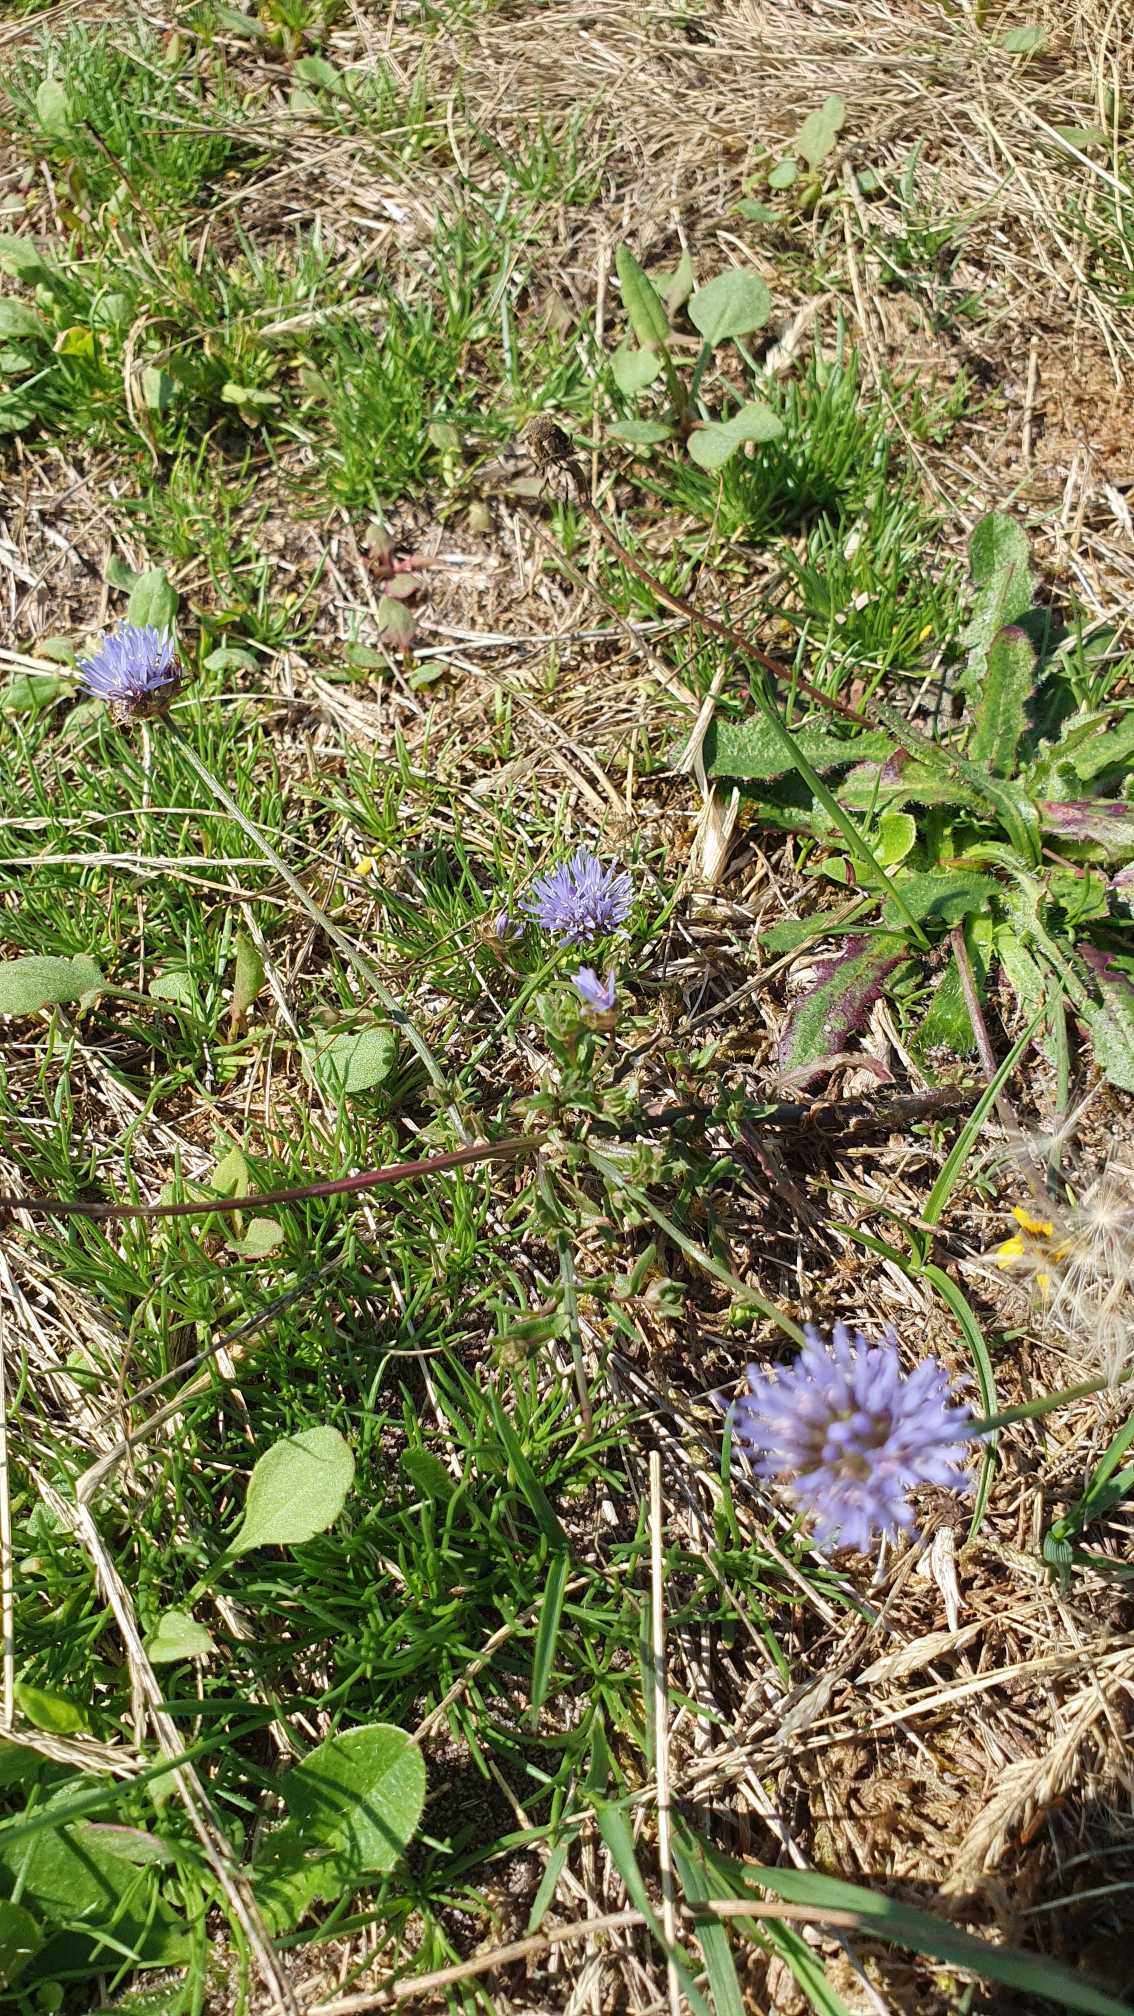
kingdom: Plantae
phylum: Tracheophyta
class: Magnoliopsida
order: Asterales
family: Campanulaceae
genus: Jasione
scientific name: Jasione montana
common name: Blåmunke
